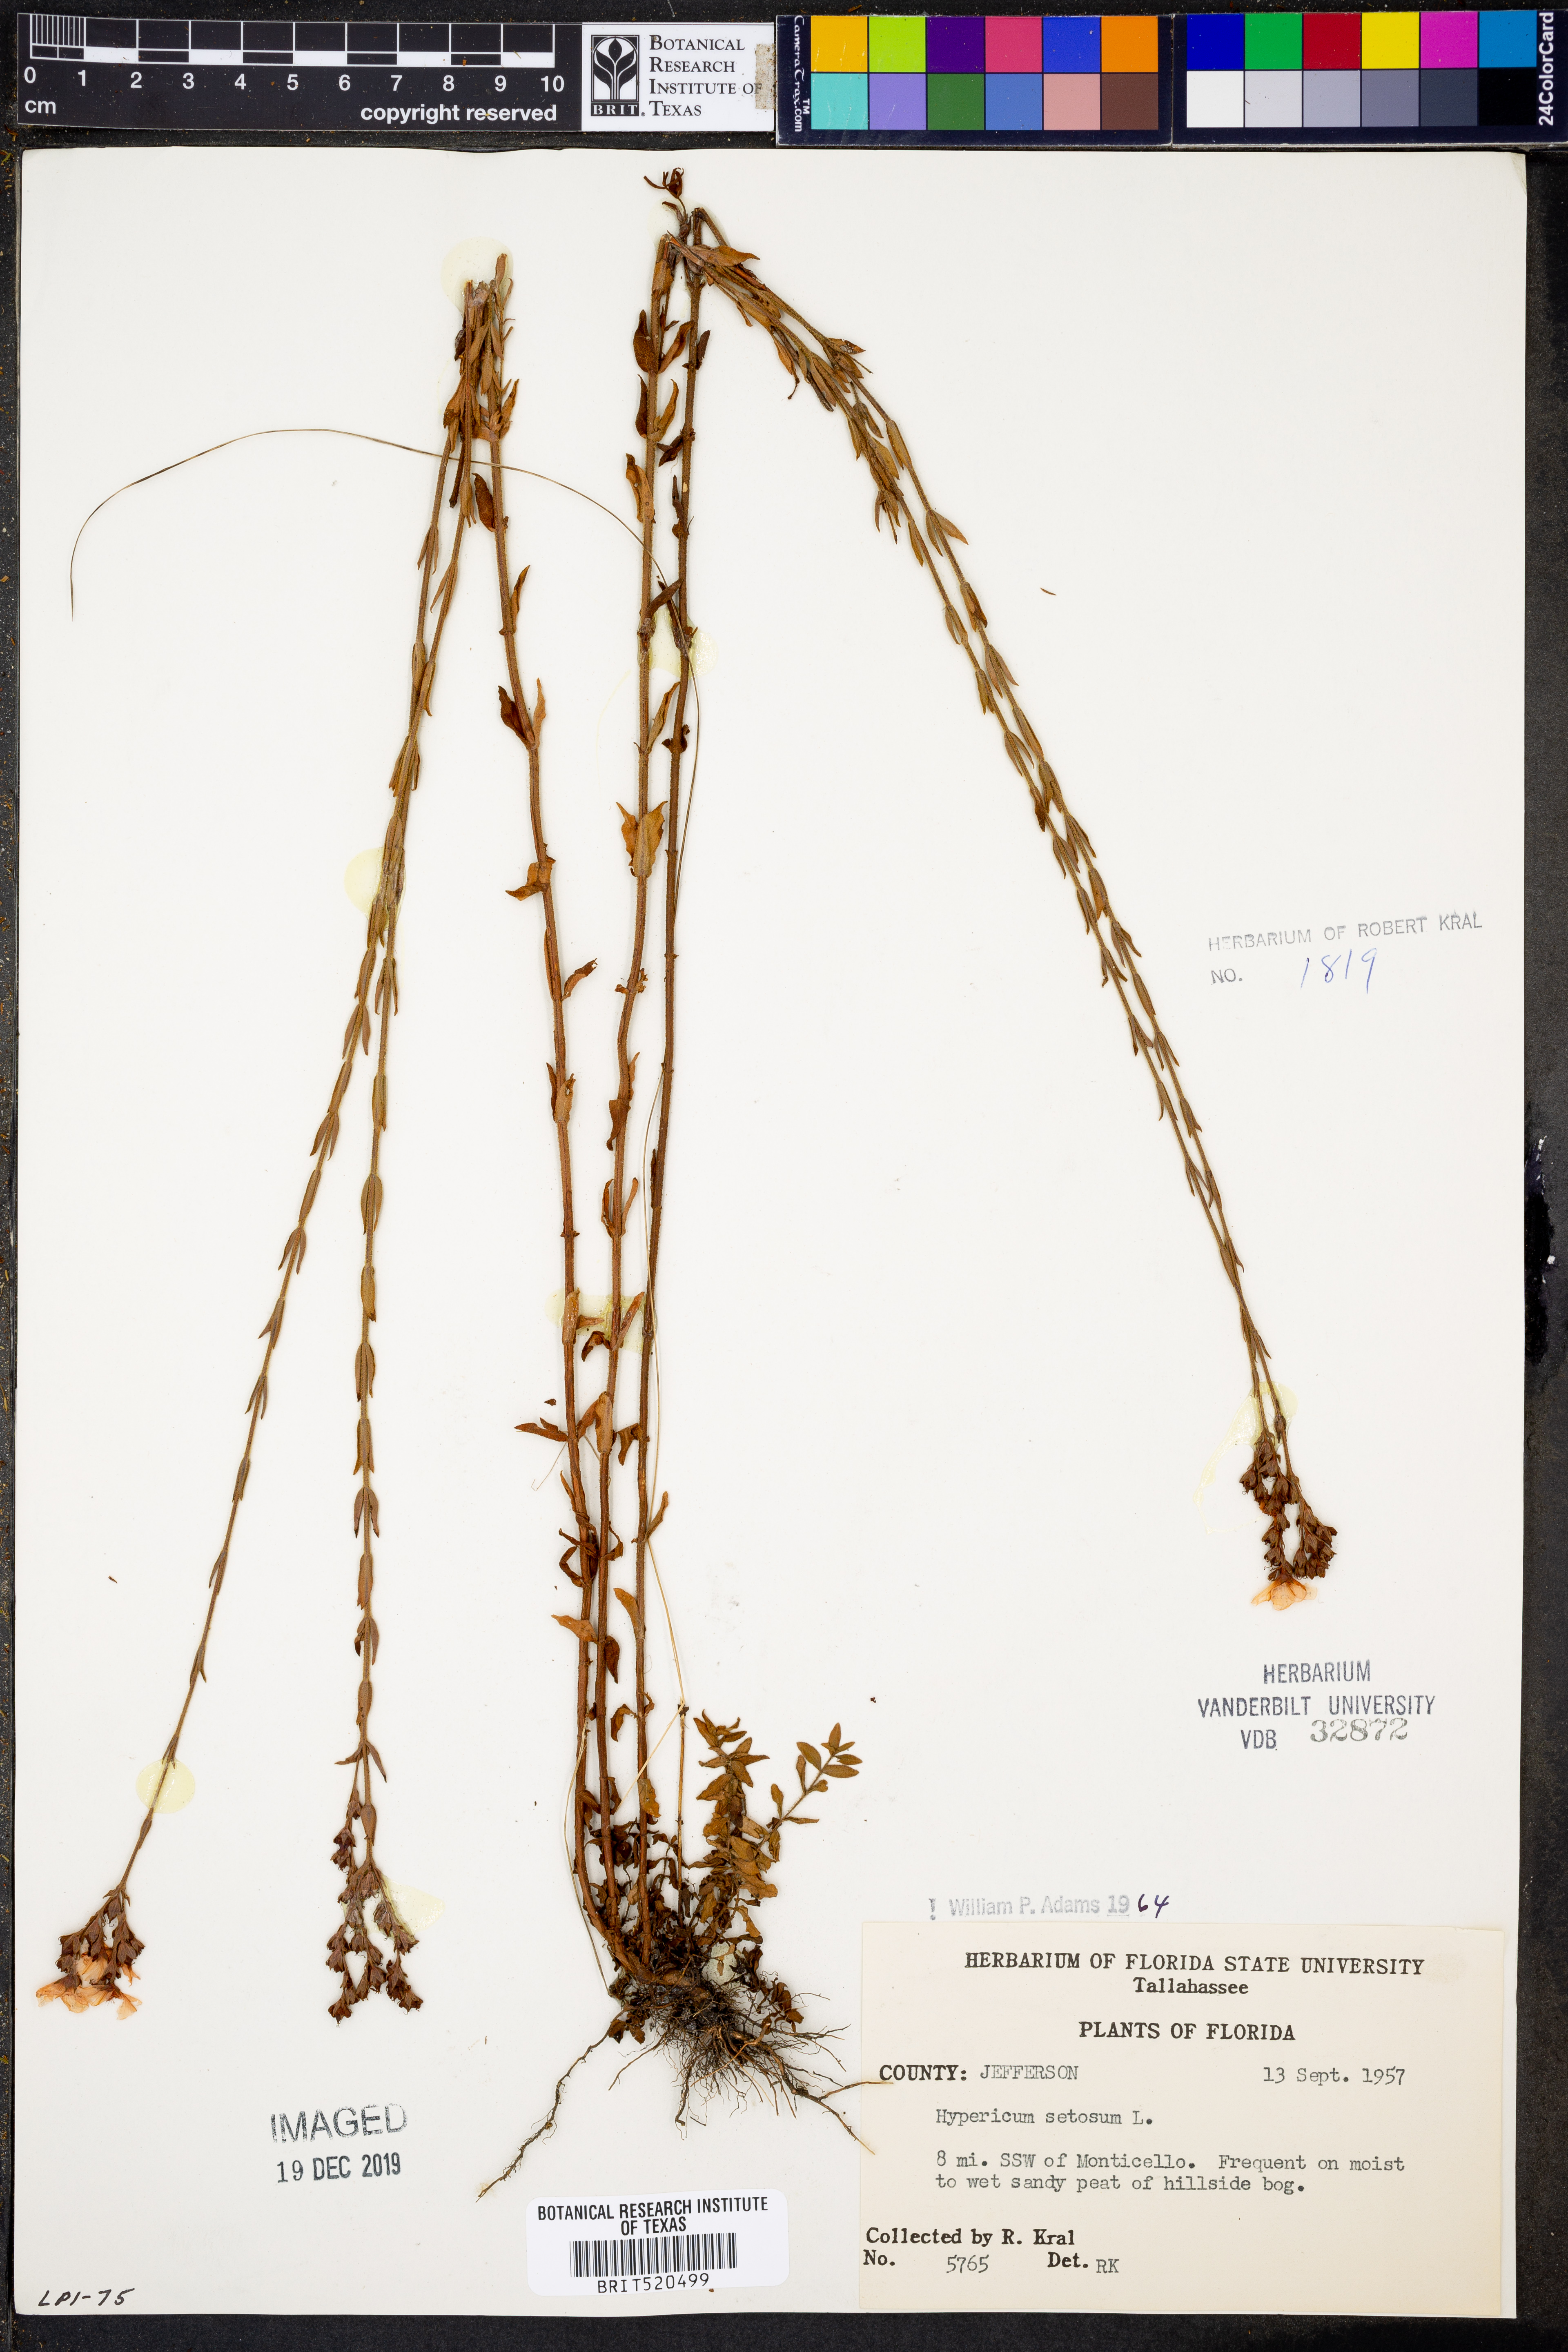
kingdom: Plantae
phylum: Tracheophyta
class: Magnoliopsida
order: Malpighiales
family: Hypericaceae
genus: Hypericum
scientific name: Hypericum setosum
